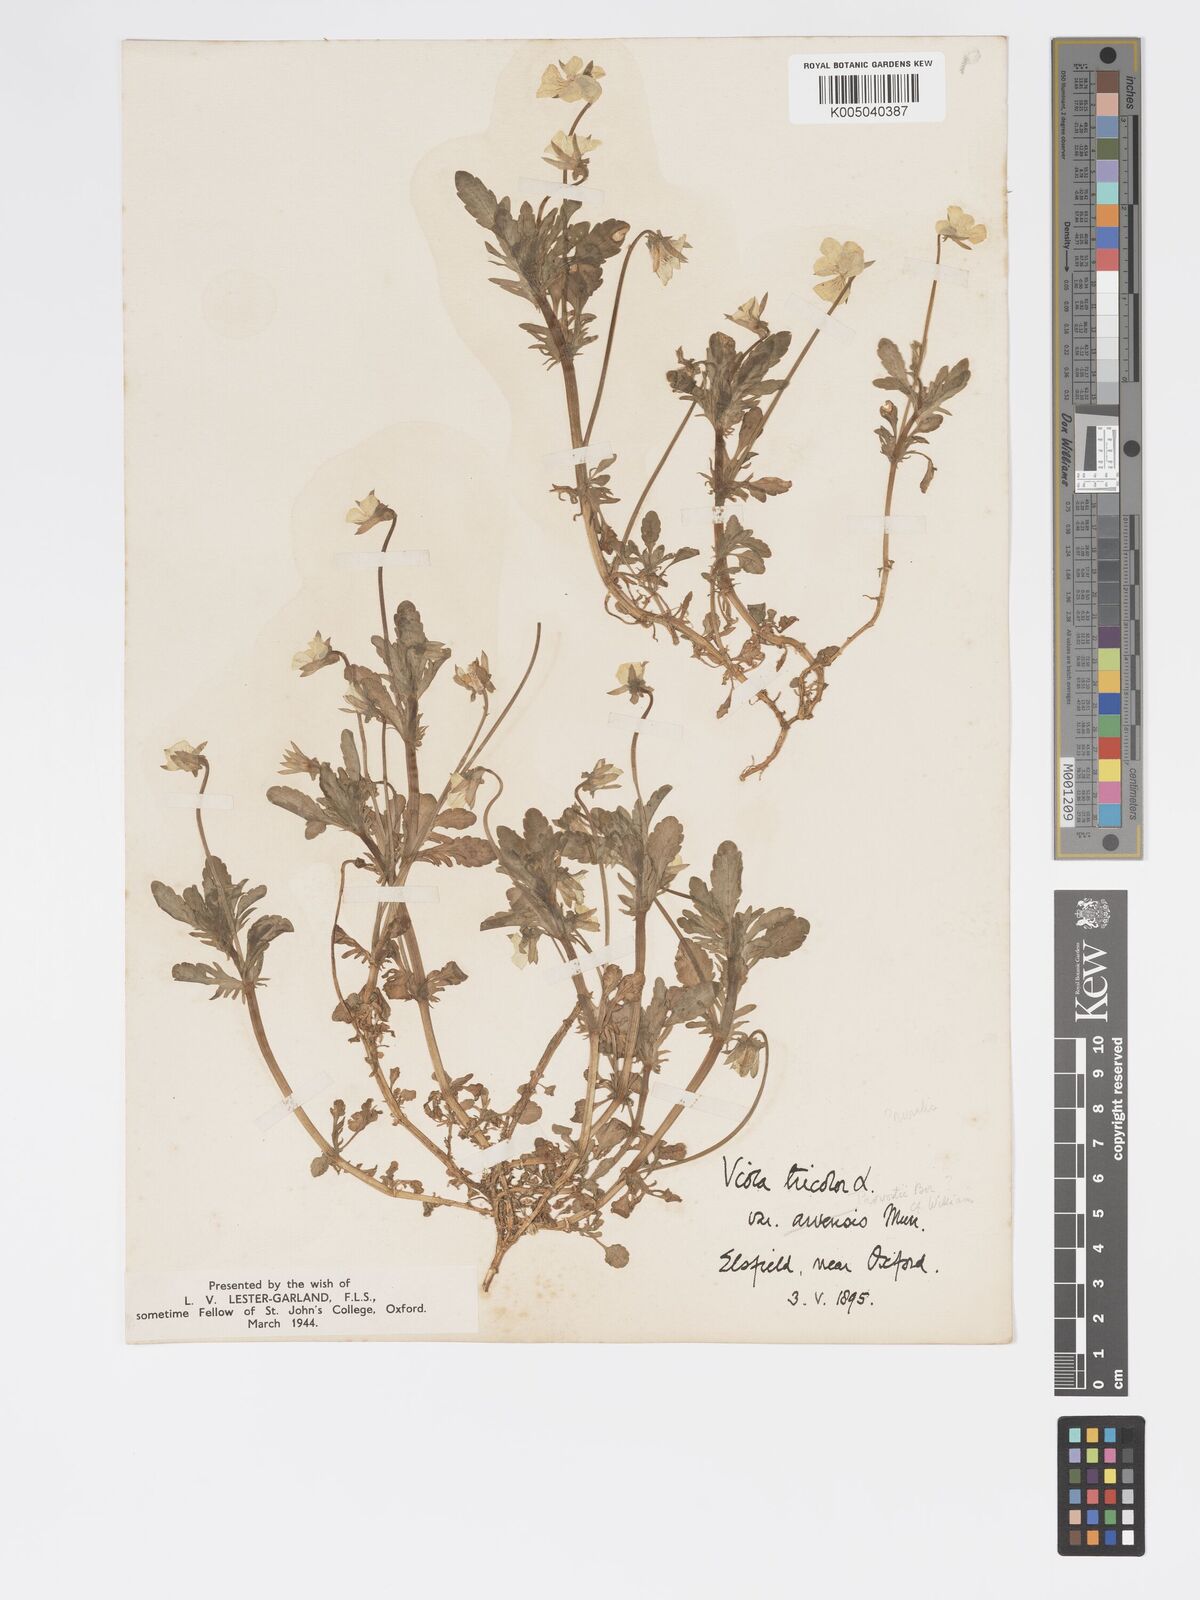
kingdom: Plantae
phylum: Tracheophyta
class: Magnoliopsida
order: Malpighiales
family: Violaceae
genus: Viola
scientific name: Viola arvensis
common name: Field pansy
